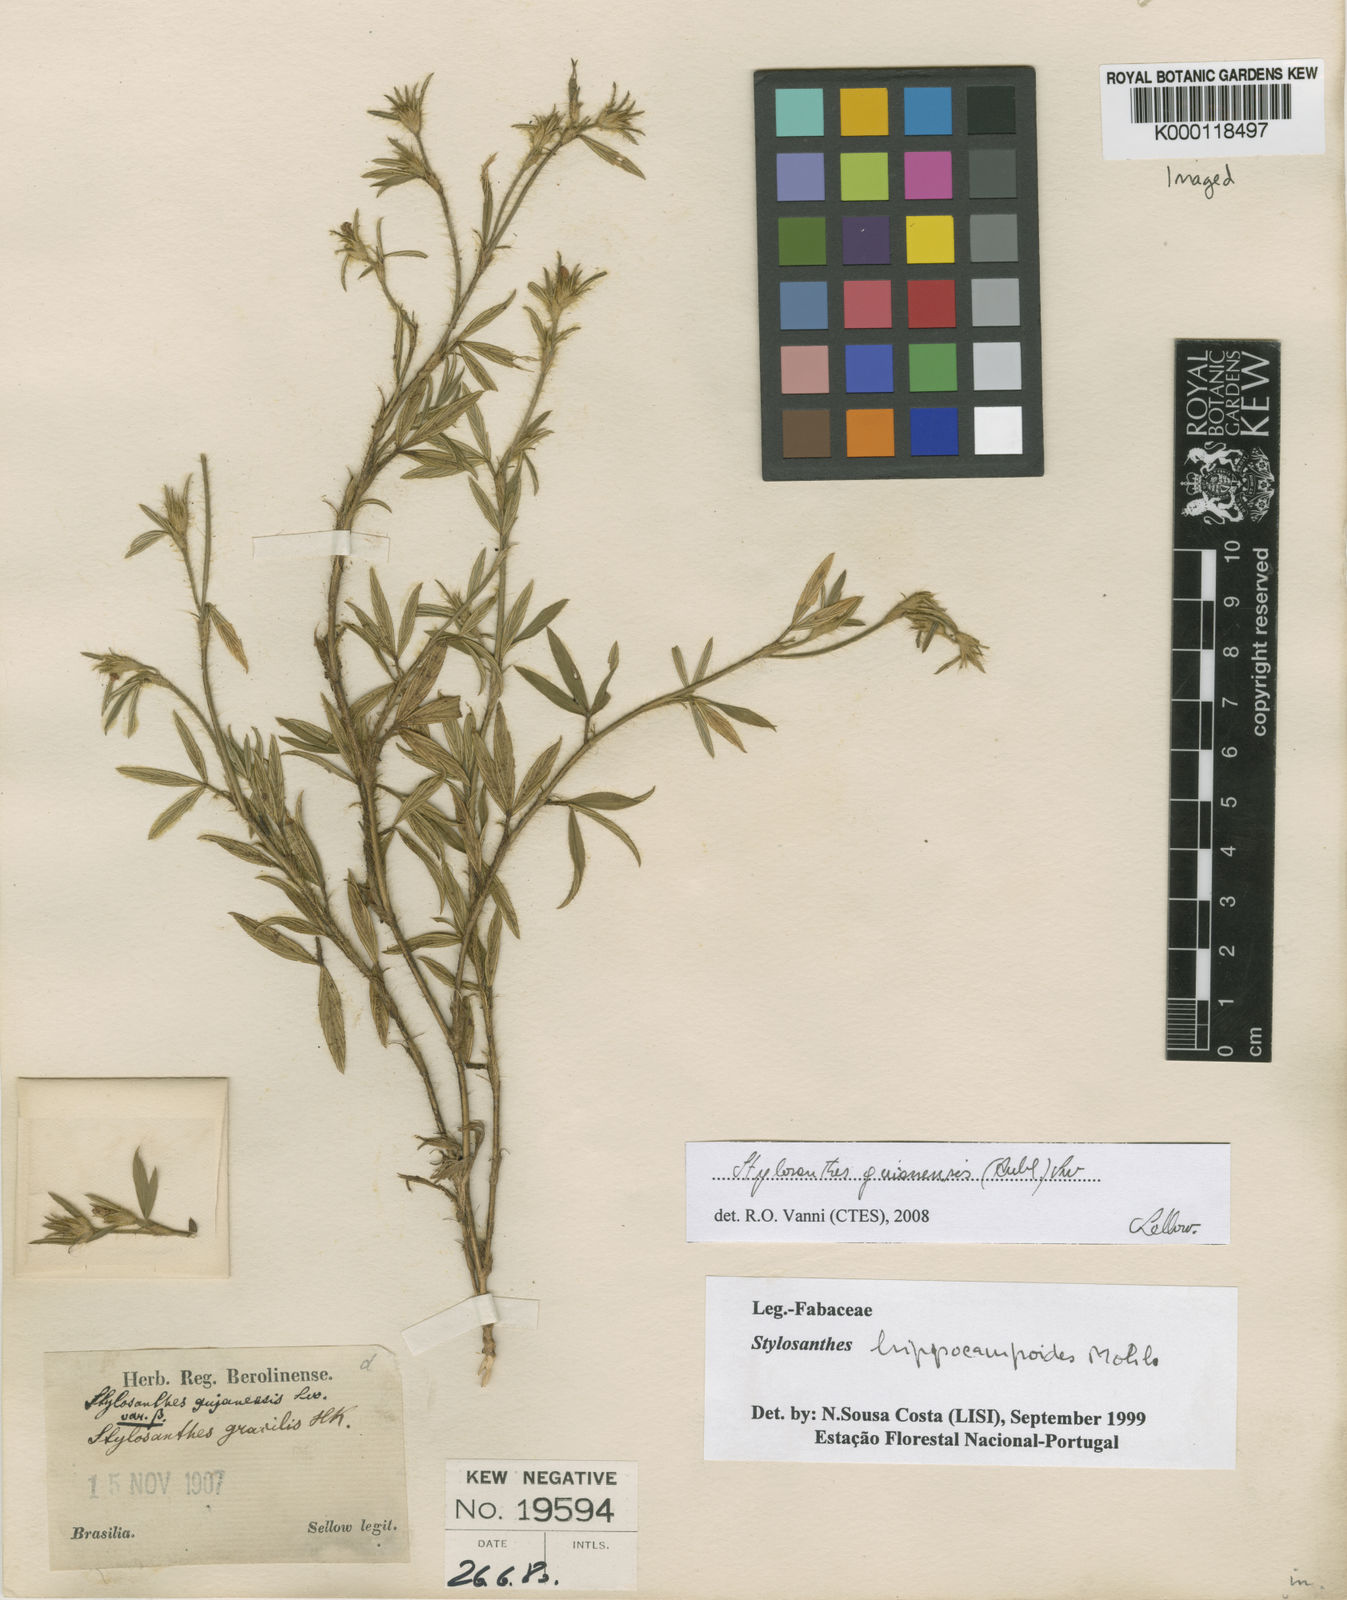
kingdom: Plantae
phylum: Tracheophyta
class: Magnoliopsida
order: Fabales
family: Fabaceae
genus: Stylosanthes
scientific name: Stylosanthes hippocampoides
